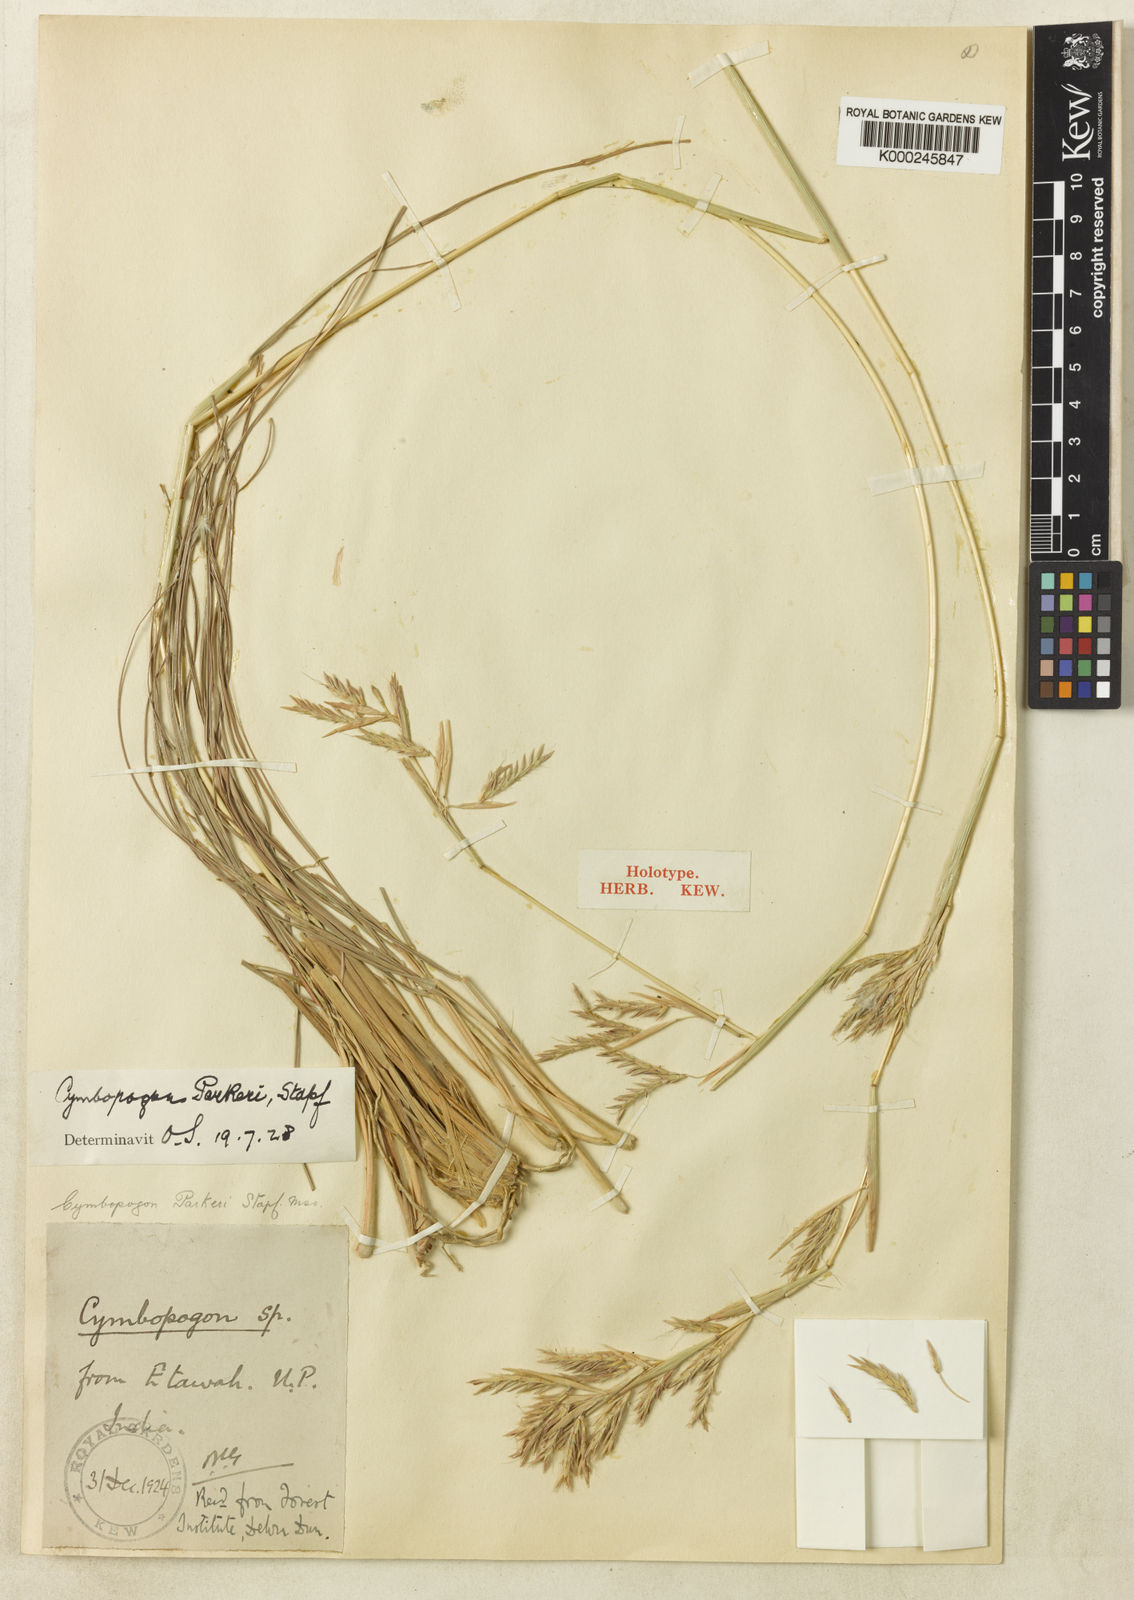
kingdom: Plantae
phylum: Tracheophyta
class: Liliopsida
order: Poales
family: Poaceae
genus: Cymbopogon
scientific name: Cymbopogon commutatus
